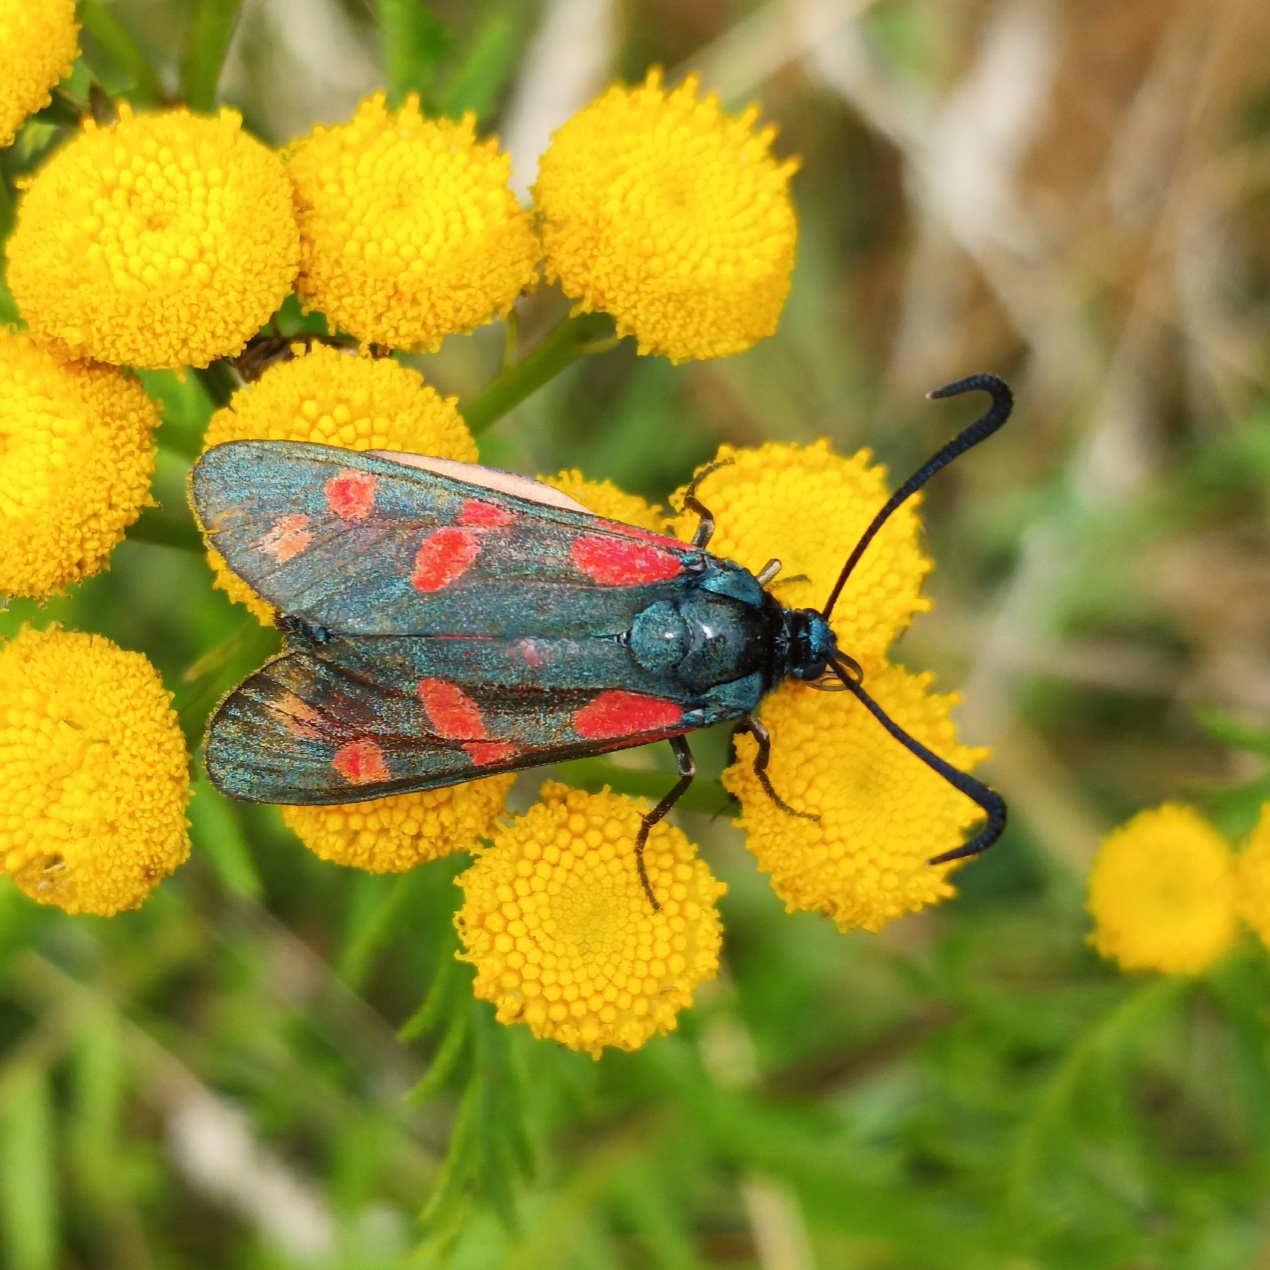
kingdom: Animalia
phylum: Arthropoda
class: Insecta
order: Lepidoptera
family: Zygaenidae
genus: Zygaena
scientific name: Zygaena filipendulae
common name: Seksplettet køllesværmer
